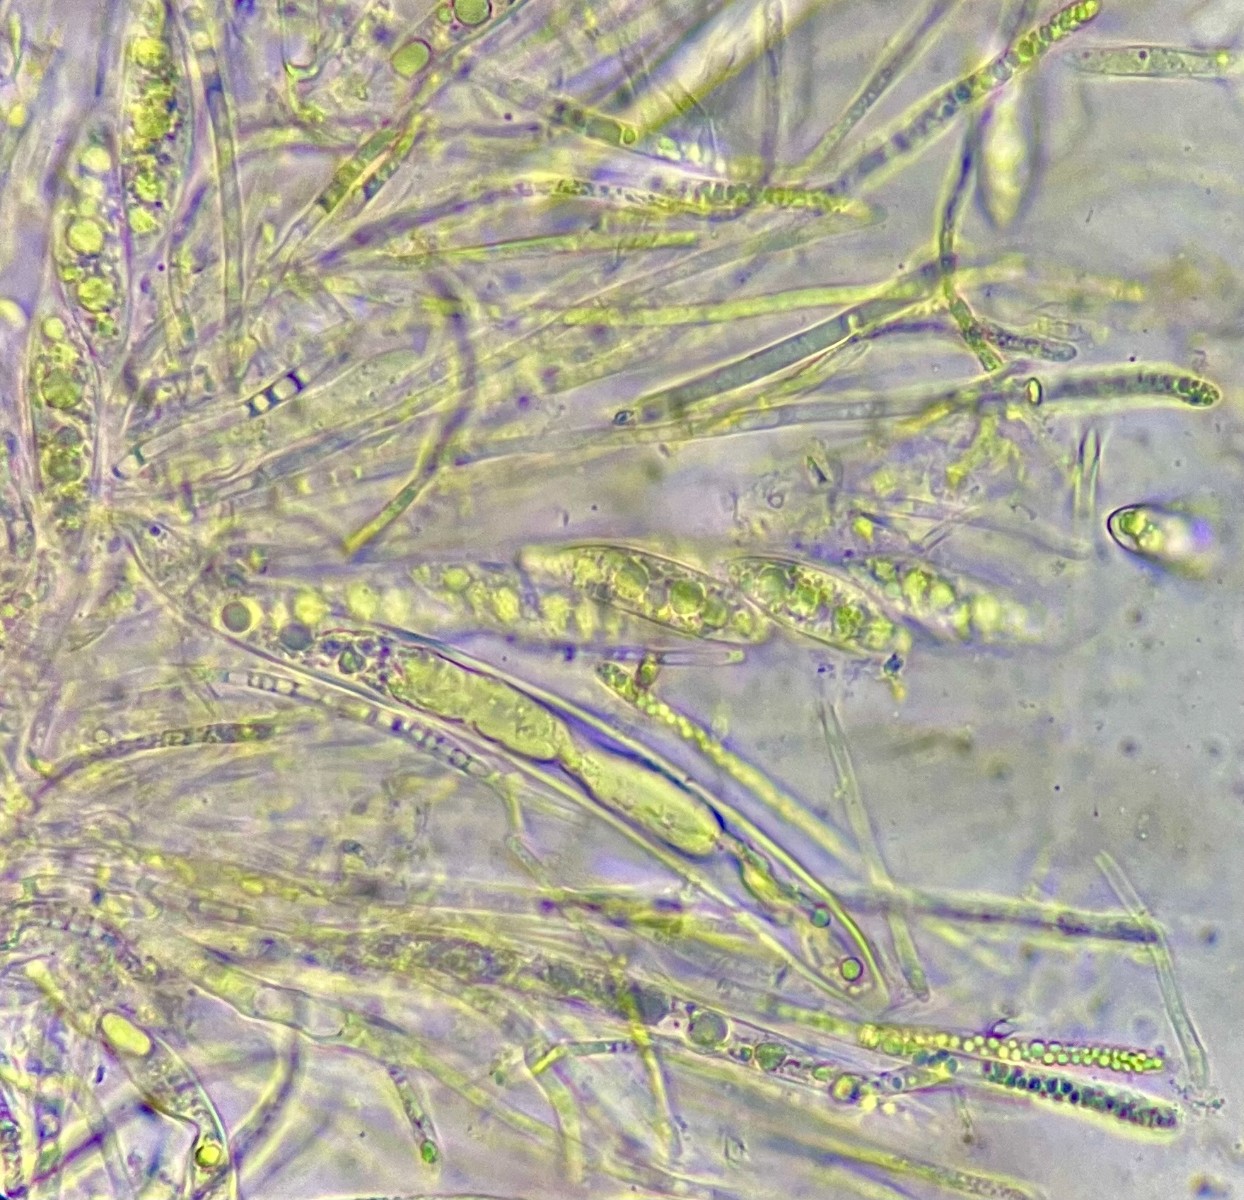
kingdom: Fungi
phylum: Ascomycota
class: Leotiomycetes
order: Helotiales
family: Helotiaceae
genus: Hymenoscyphus
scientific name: Hymenoscyphus
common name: stilkskive
